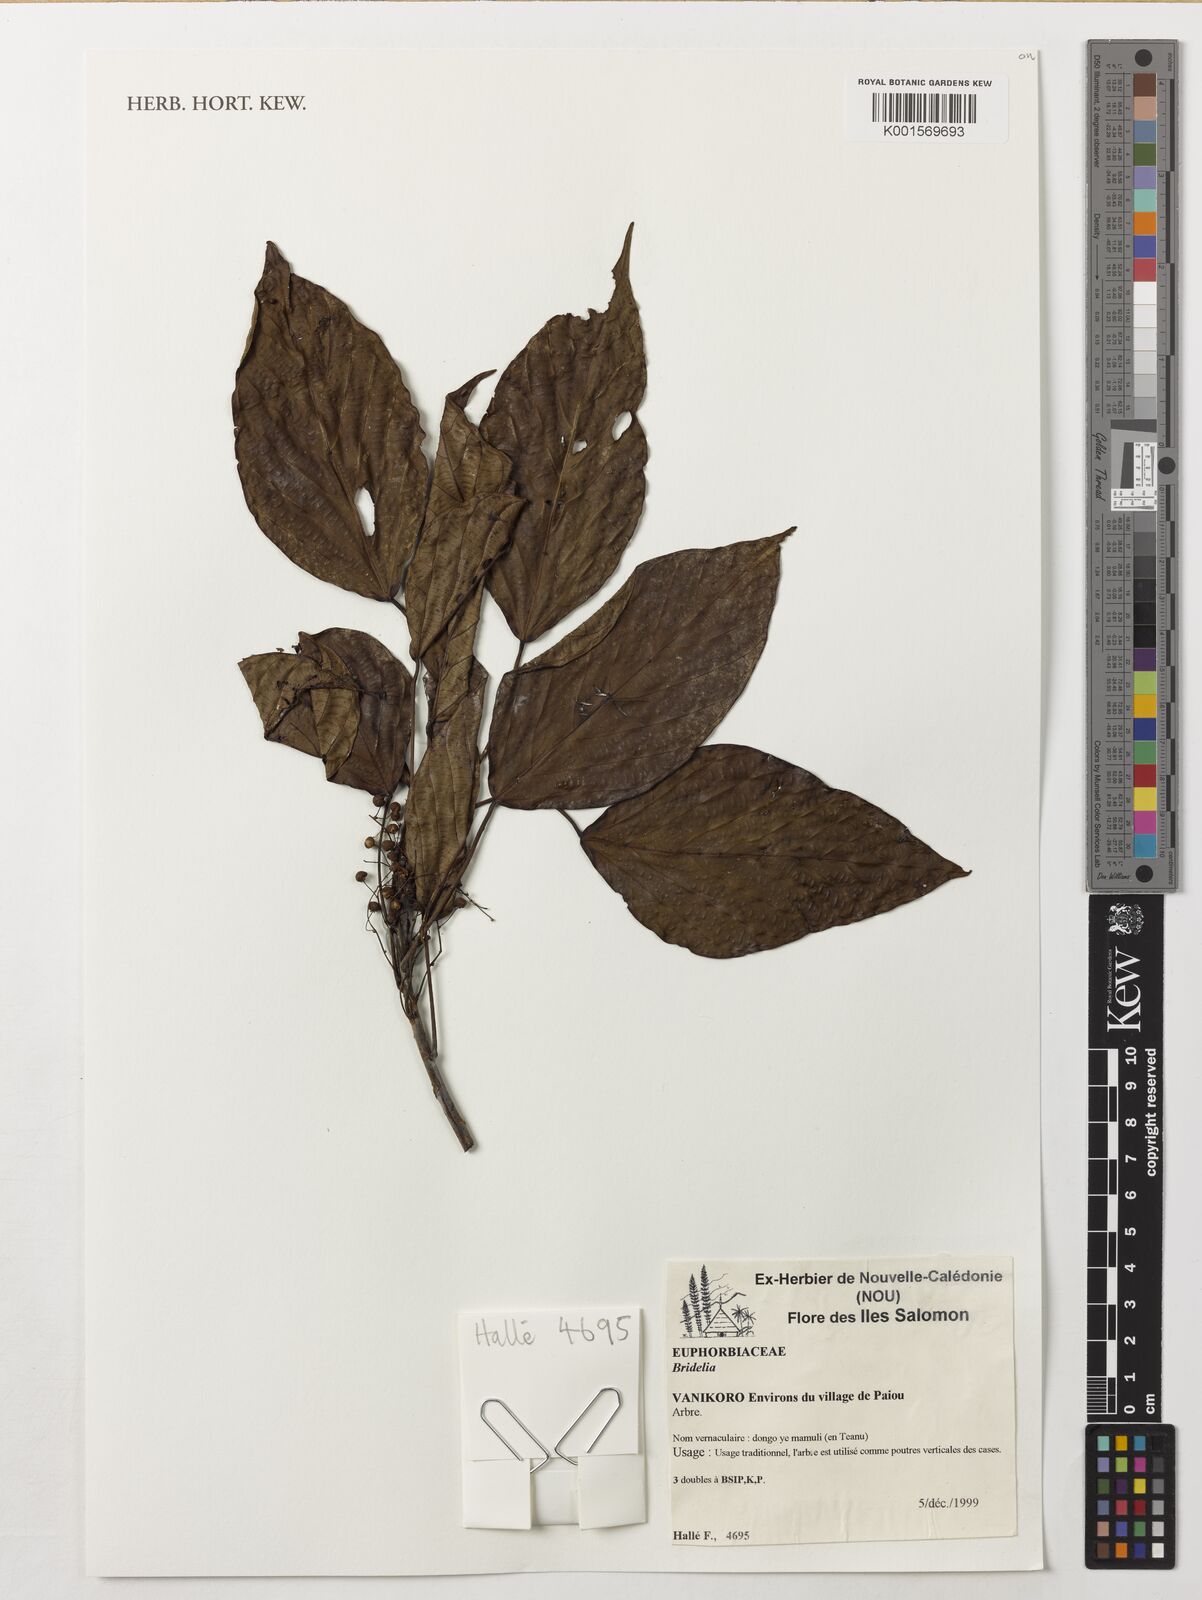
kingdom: Plantae
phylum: Tracheophyta
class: Magnoliopsida
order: Malpighiales
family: Phyllanthaceae
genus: Bridelia
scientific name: Bridelia
